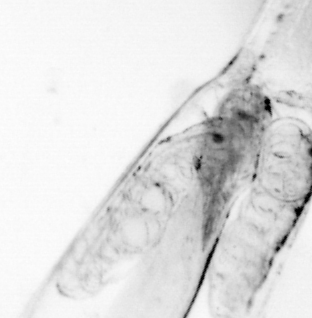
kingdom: Animalia
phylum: Chordata
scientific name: Chordata
